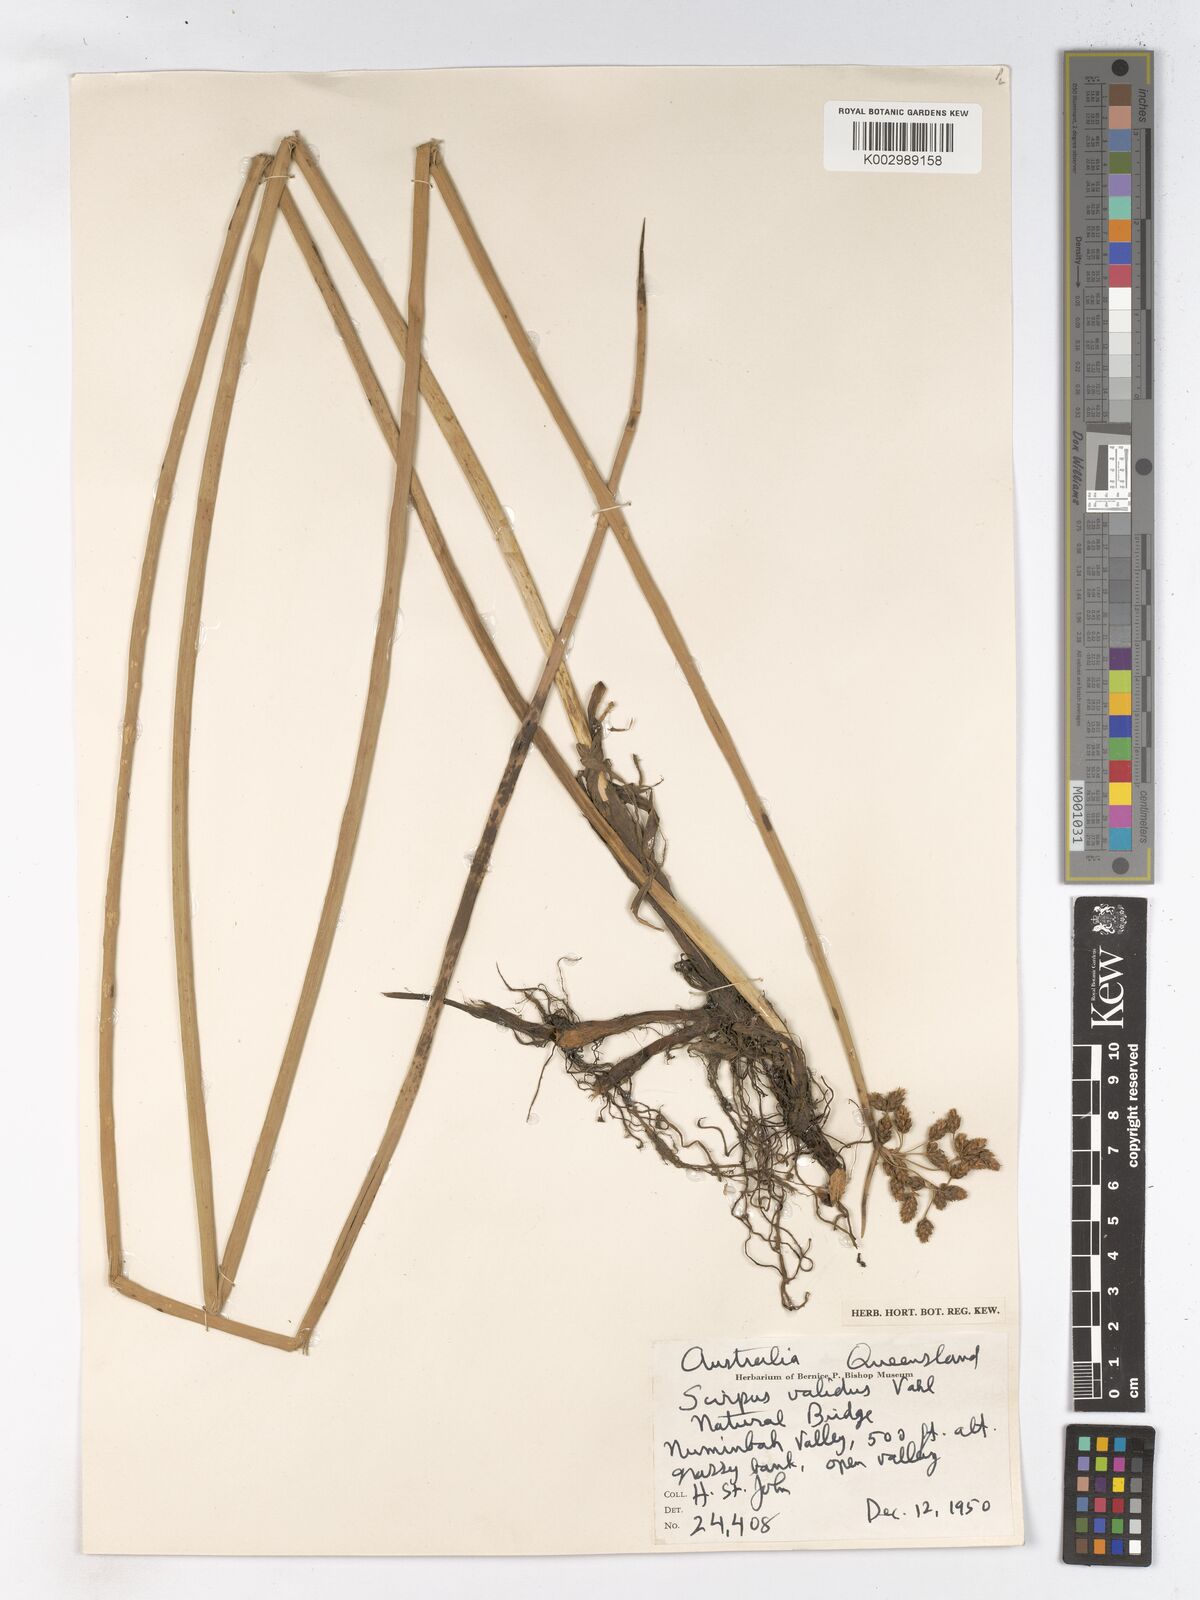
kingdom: Plantae
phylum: Tracheophyta
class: Liliopsida
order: Poales
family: Cyperaceae
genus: Schoenoplectus
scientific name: Schoenoplectus lacustris
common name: Common club-rush
